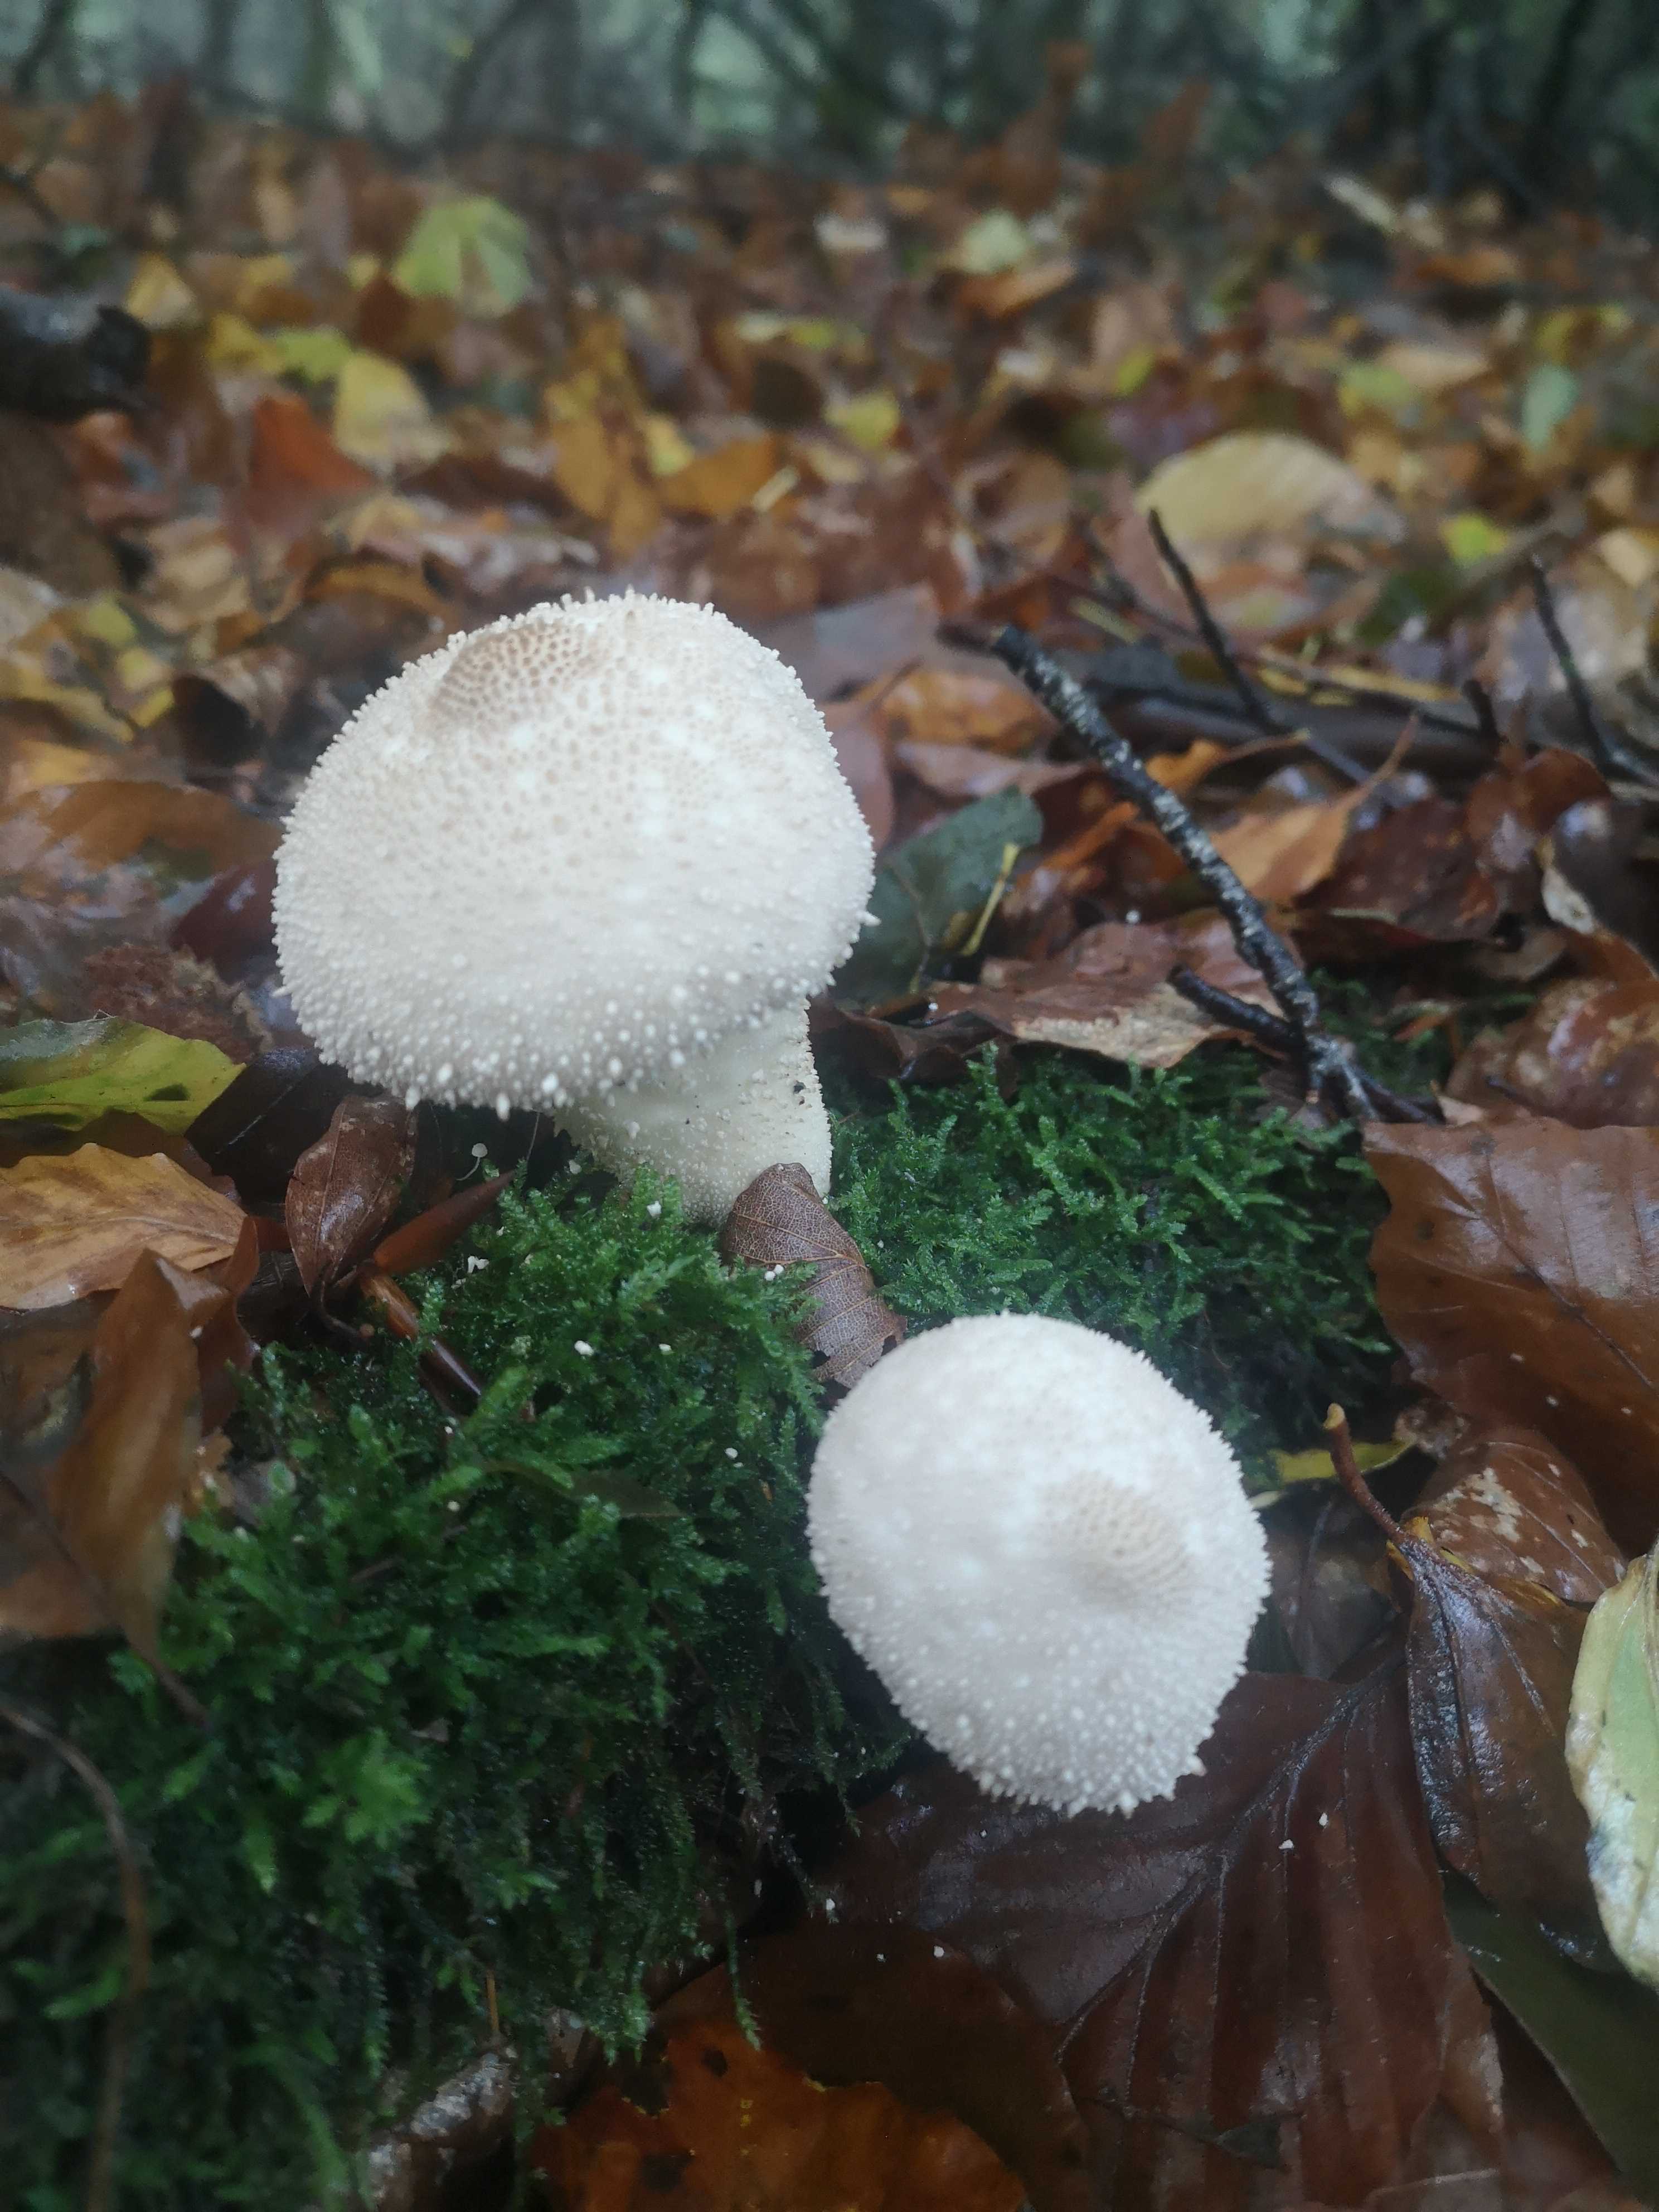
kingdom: Fungi
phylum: Basidiomycota
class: Agaricomycetes
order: Agaricales
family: Lycoperdaceae
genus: Lycoperdon
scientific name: Lycoperdon perlatum
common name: krystal-støvbold
